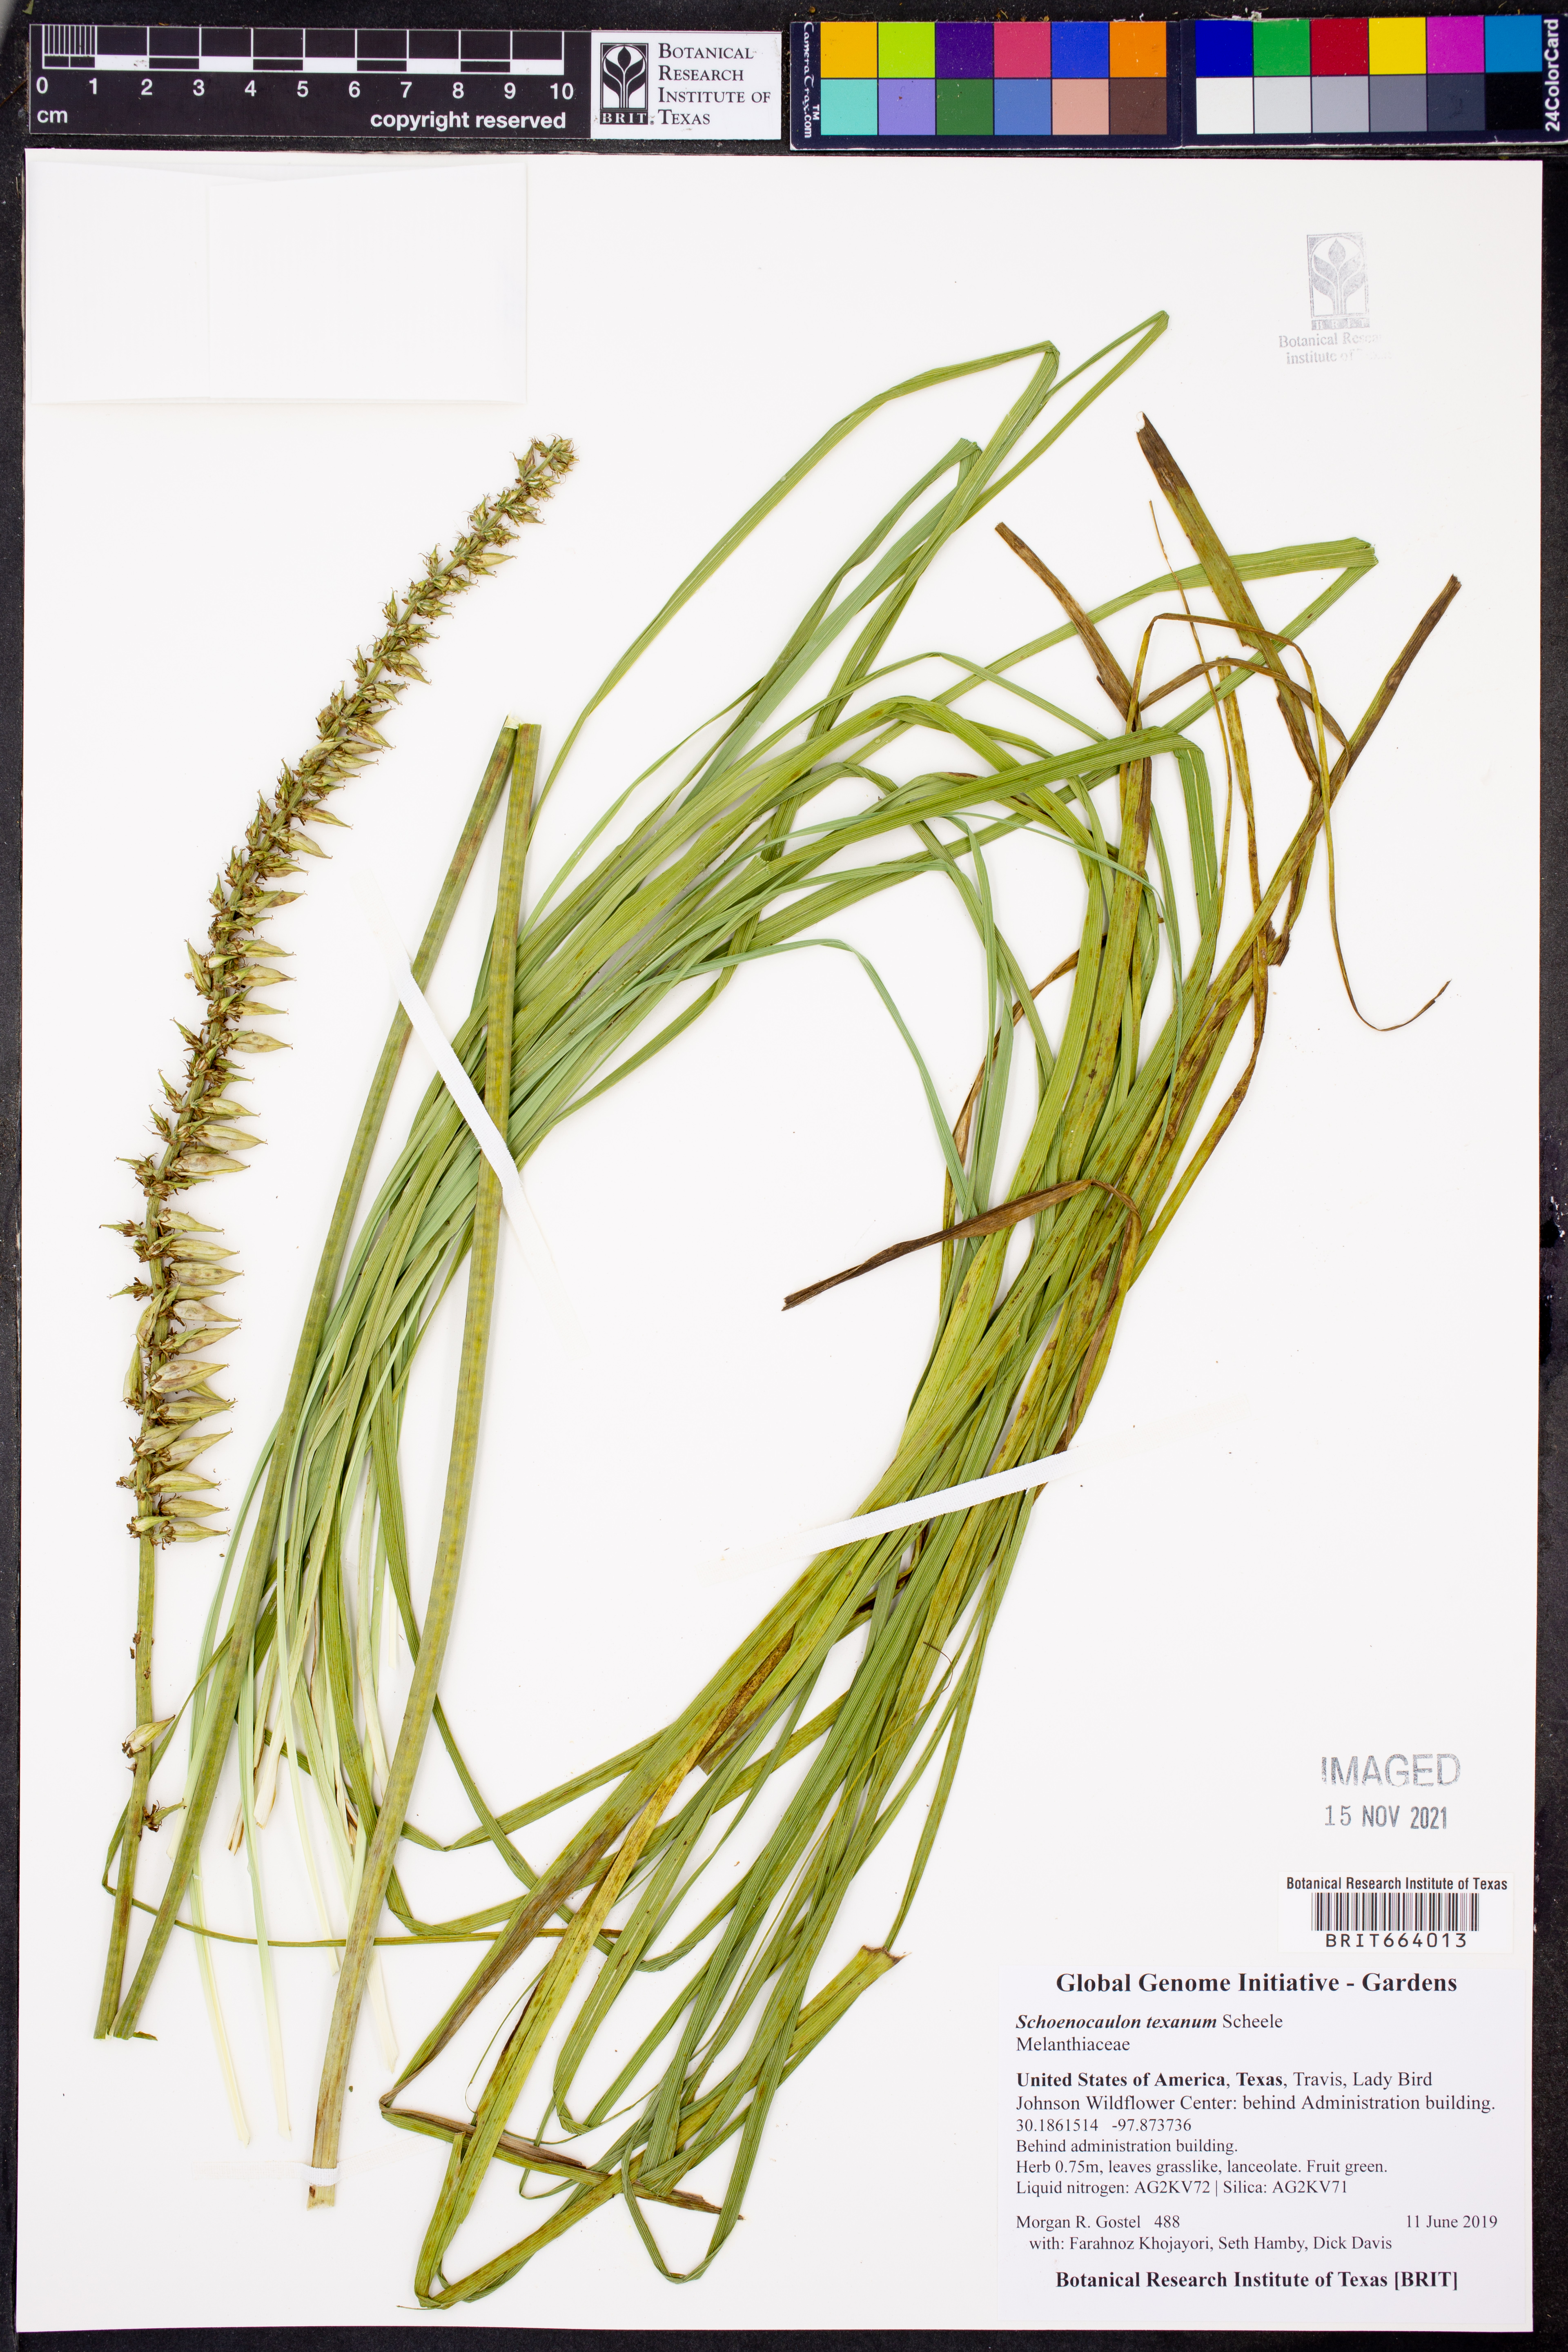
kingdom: Plantae
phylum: Tracheophyta
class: Liliopsida
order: Liliales
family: Melanthiaceae
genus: Schoenocaulon
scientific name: Schoenocaulon texanum
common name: Texas feather-shank
